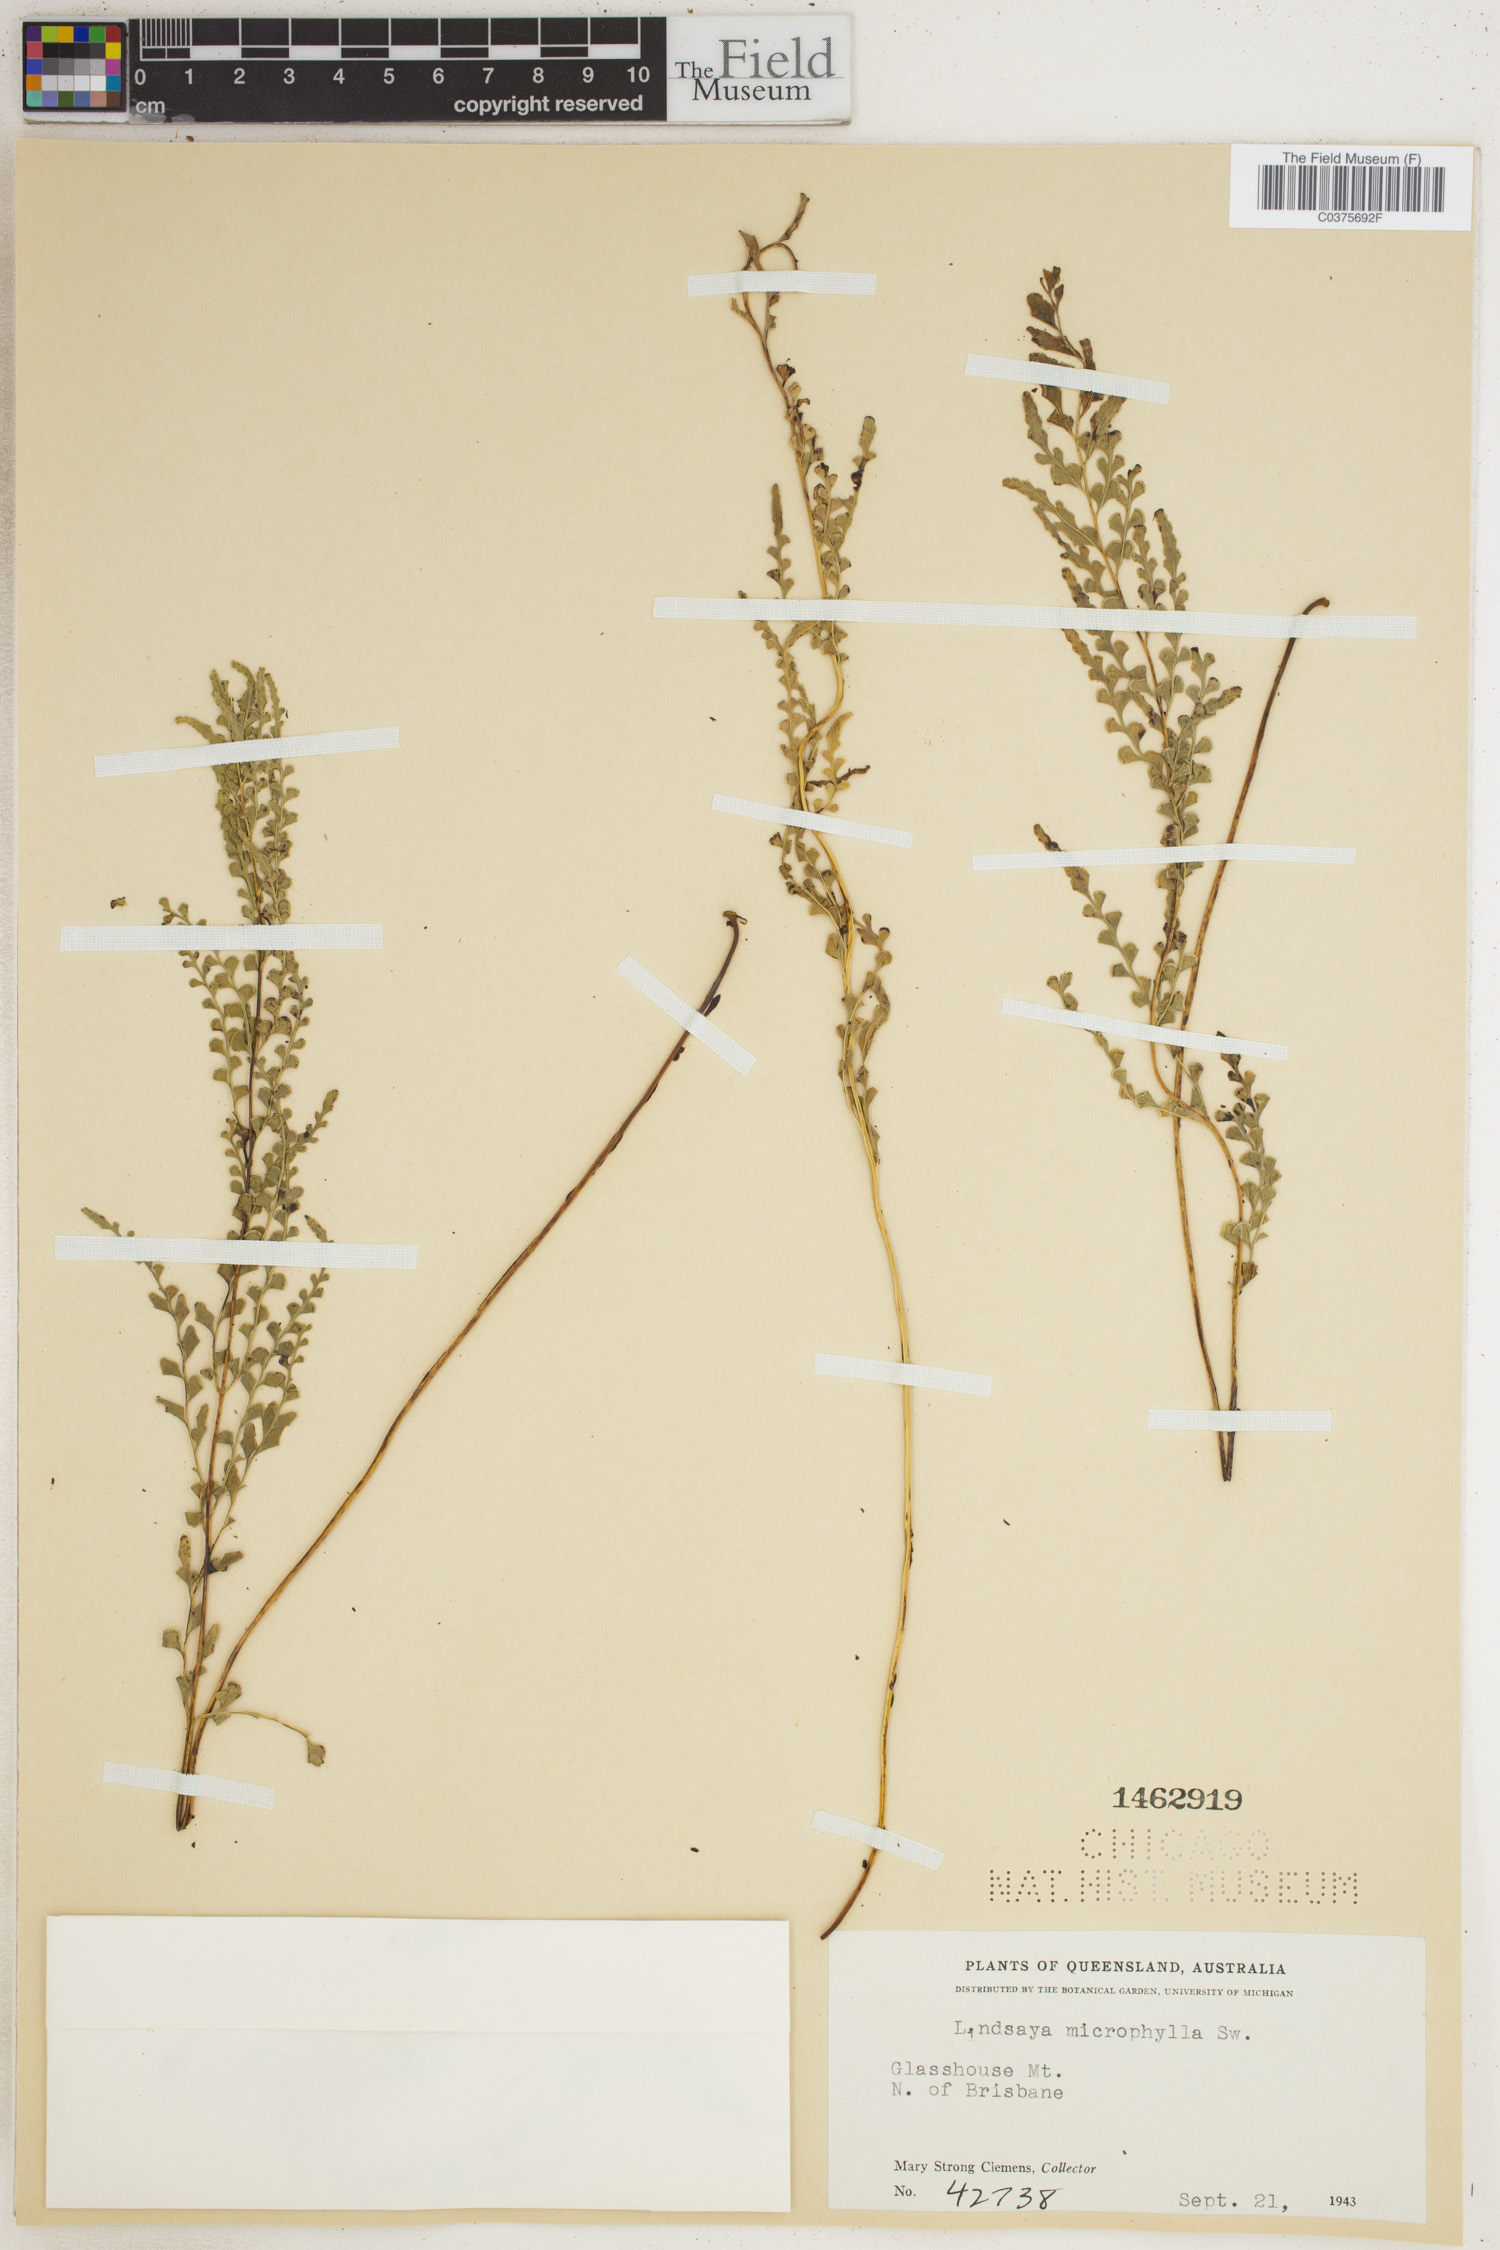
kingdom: Plantae
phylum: Tracheophyta
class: Polypodiopsida
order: Polypodiales
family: Lindsaeaceae
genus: Lindsaea
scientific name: Lindsaea stricta
